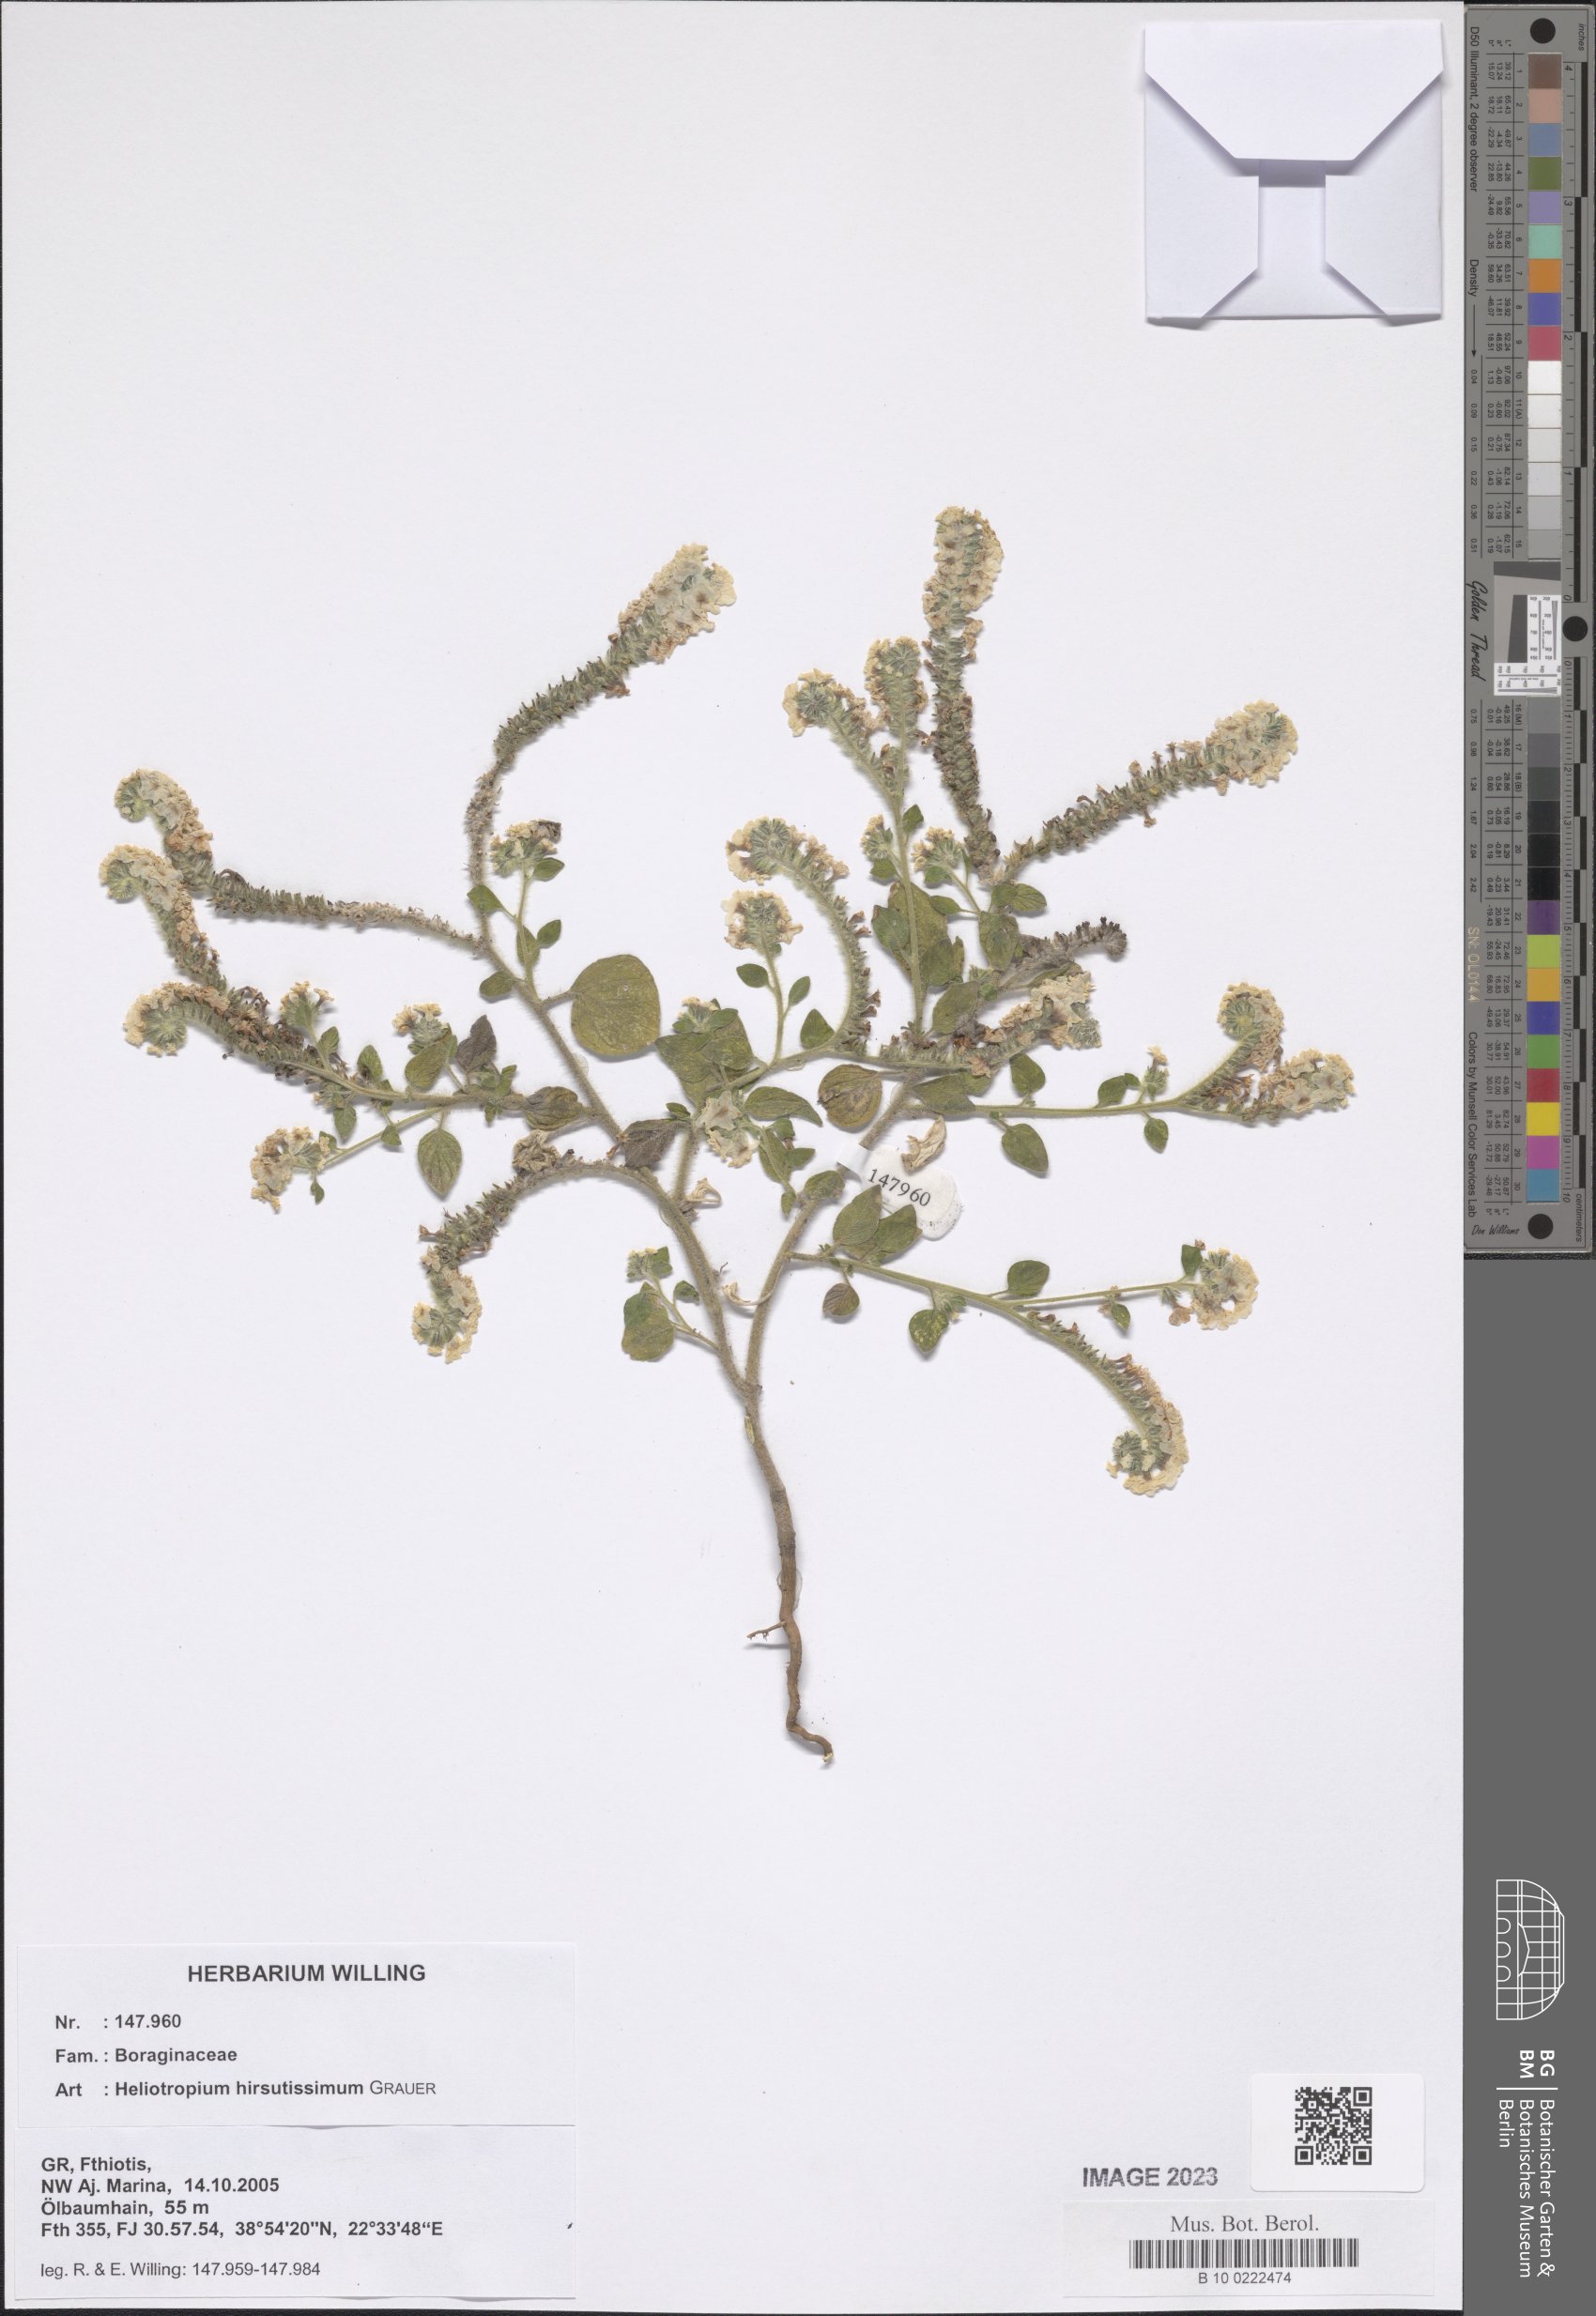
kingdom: Plantae
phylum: Tracheophyta
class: Magnoliopsida
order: Boraginales
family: Heliotropiaceae
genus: Heliotropium
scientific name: Heliotropium hirsutissimum
